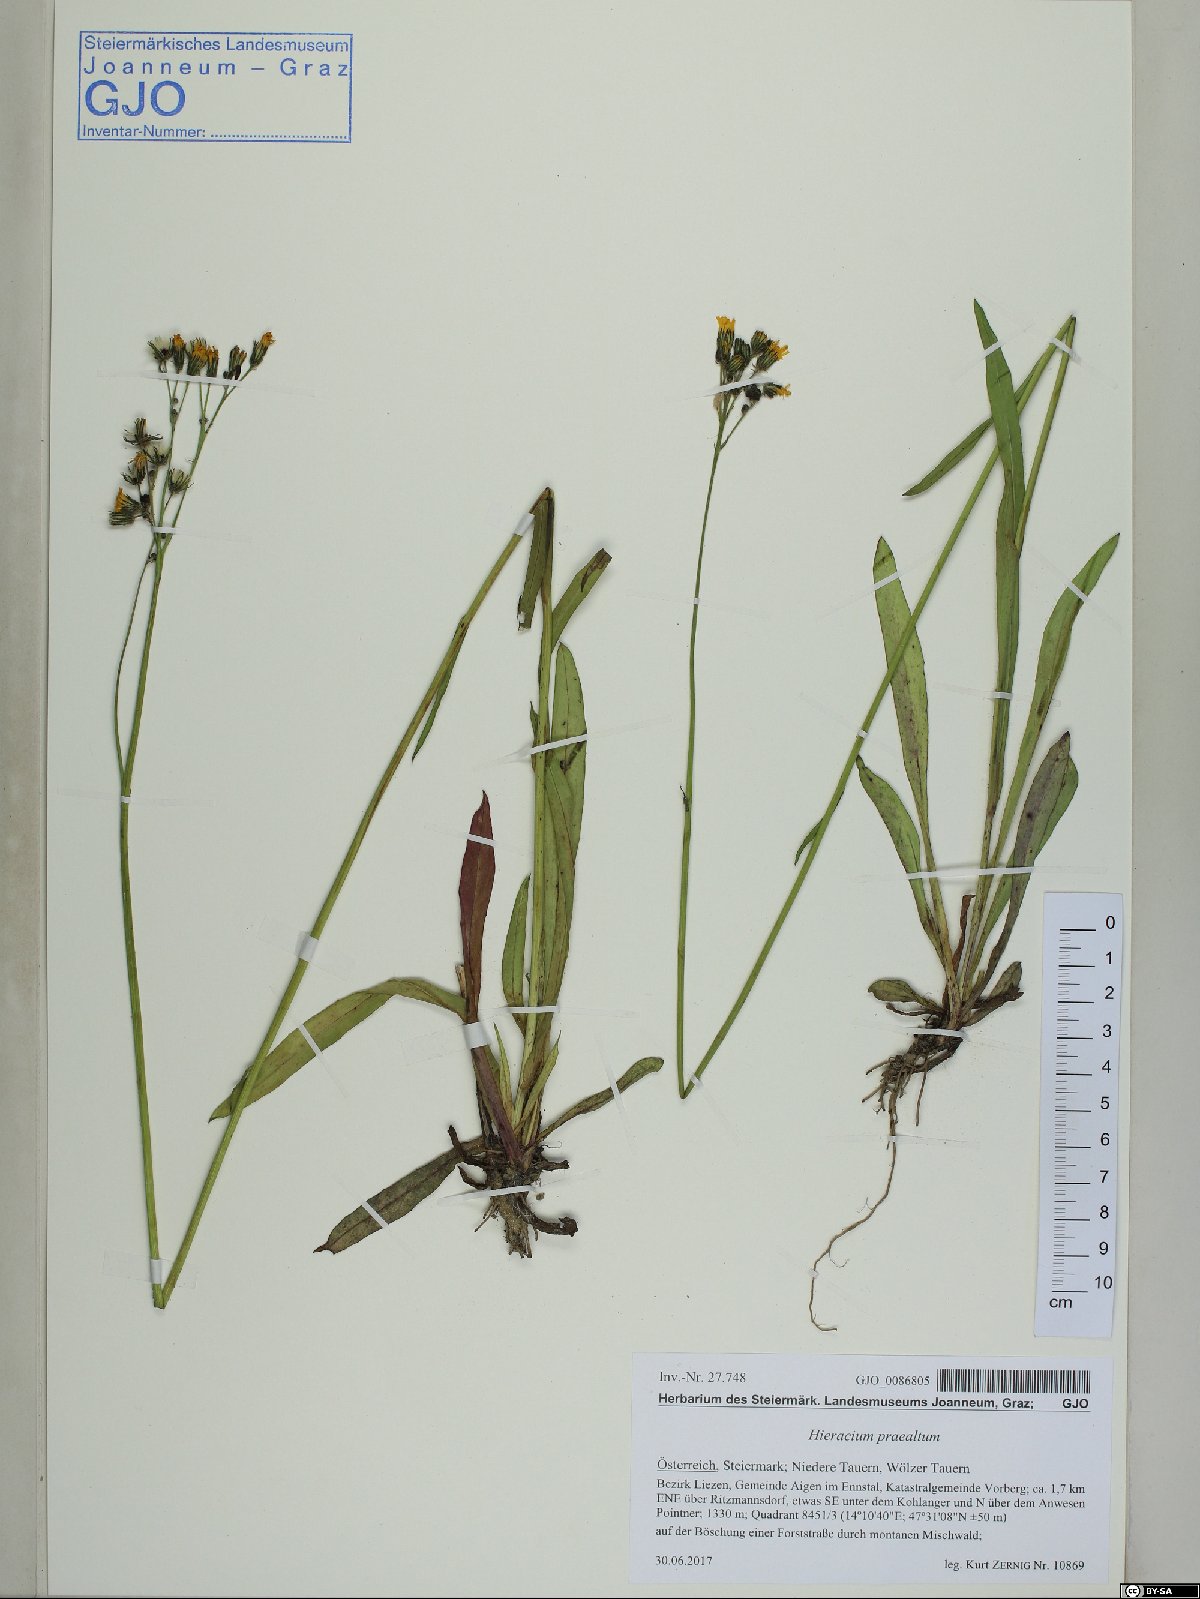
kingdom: Plantae
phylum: Tracheophyta
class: Magnoliopsida
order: Asterales
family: Asteraceae
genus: Pilosella
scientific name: Pilosella piloselloides
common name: Glaucous king-devil
